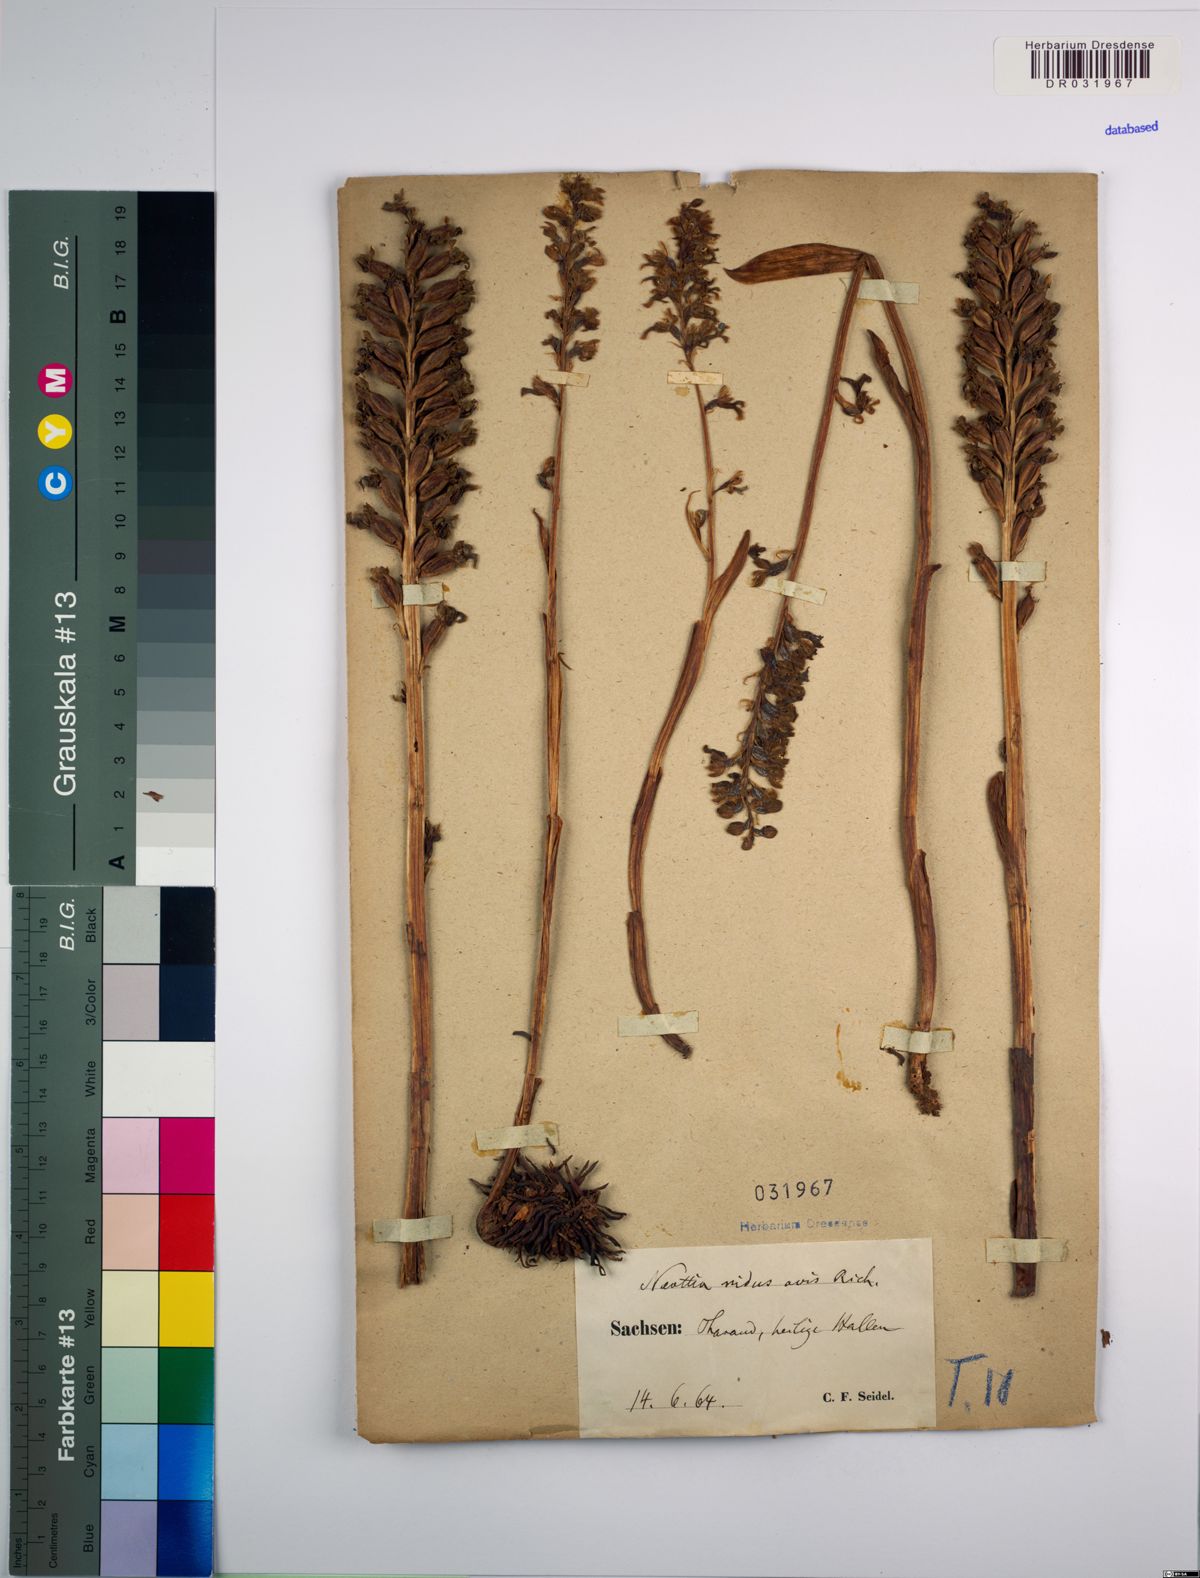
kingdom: Plantae
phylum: Tracheophyta
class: Liliopsida
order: Asparagales
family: Orchidaceae
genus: Neottia
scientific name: Neottia nidus-avis
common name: Bird's-nest orchid
